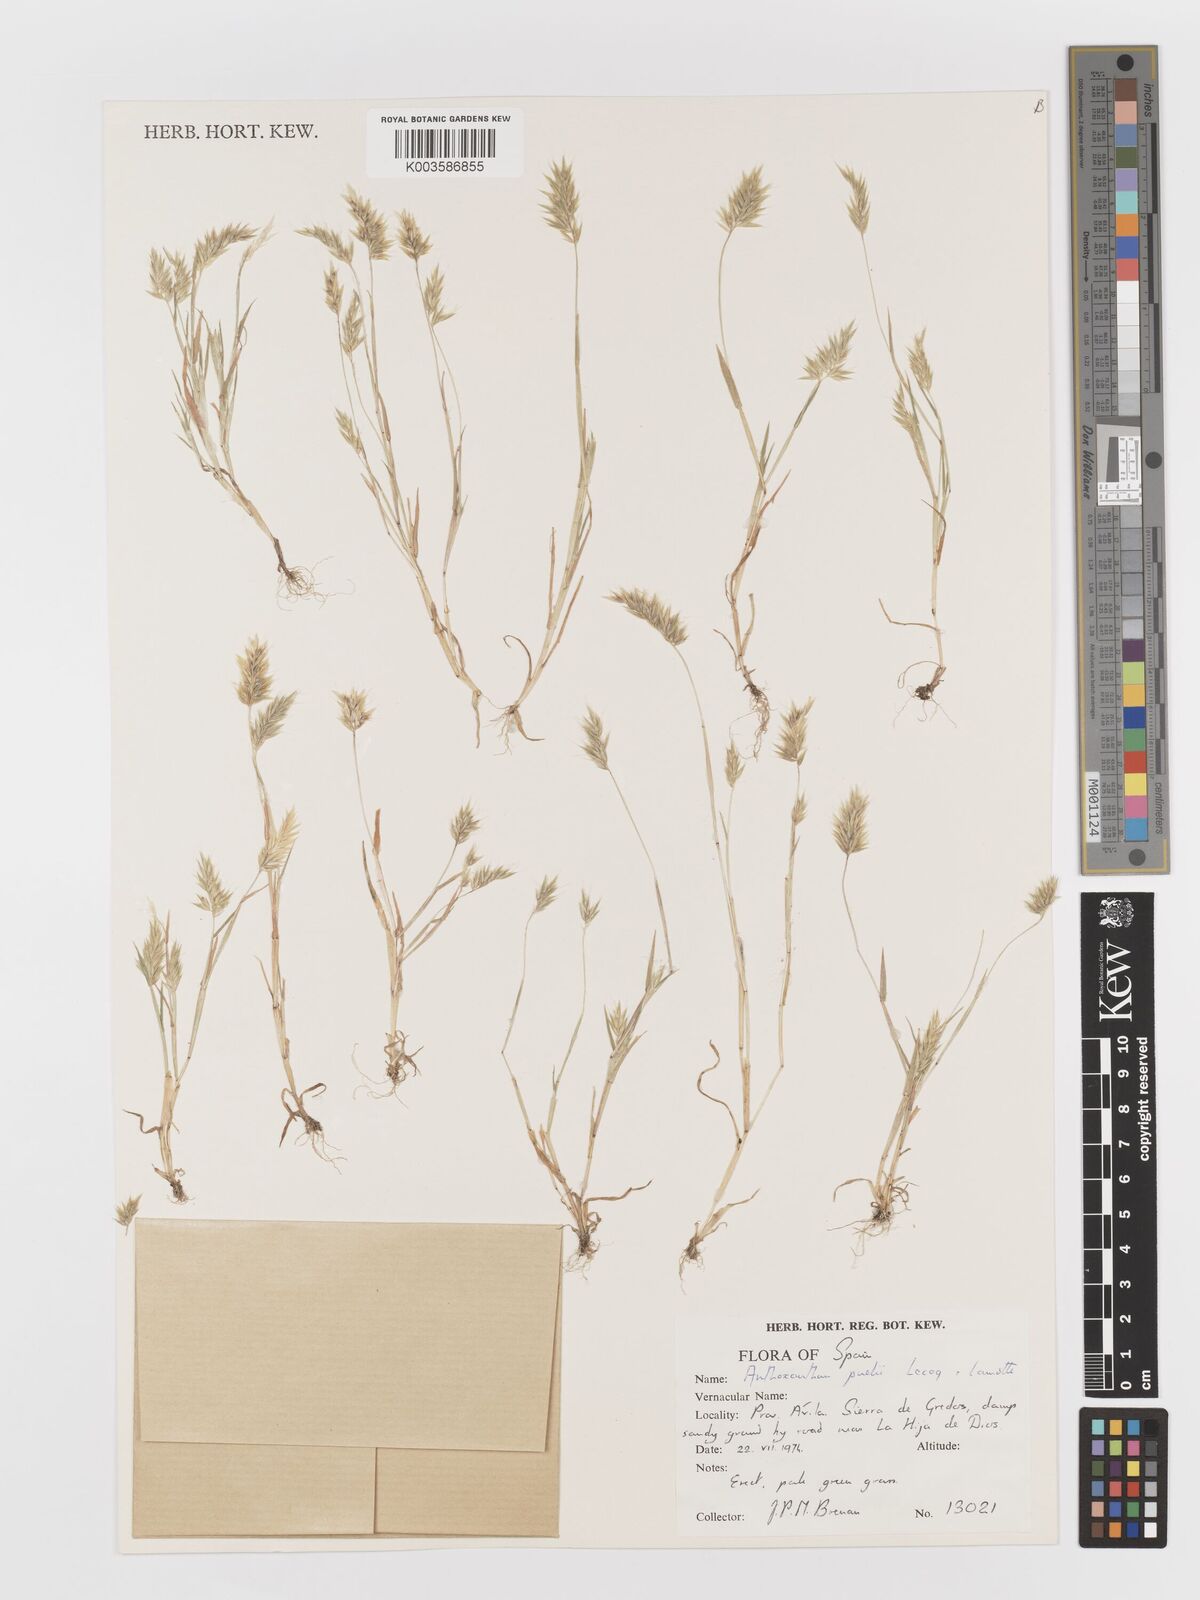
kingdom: Plantae
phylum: Tracheophyta
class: Liliopsida
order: Poales
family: Poaceae
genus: Anthoxanthum
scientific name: Anthoxanthum
